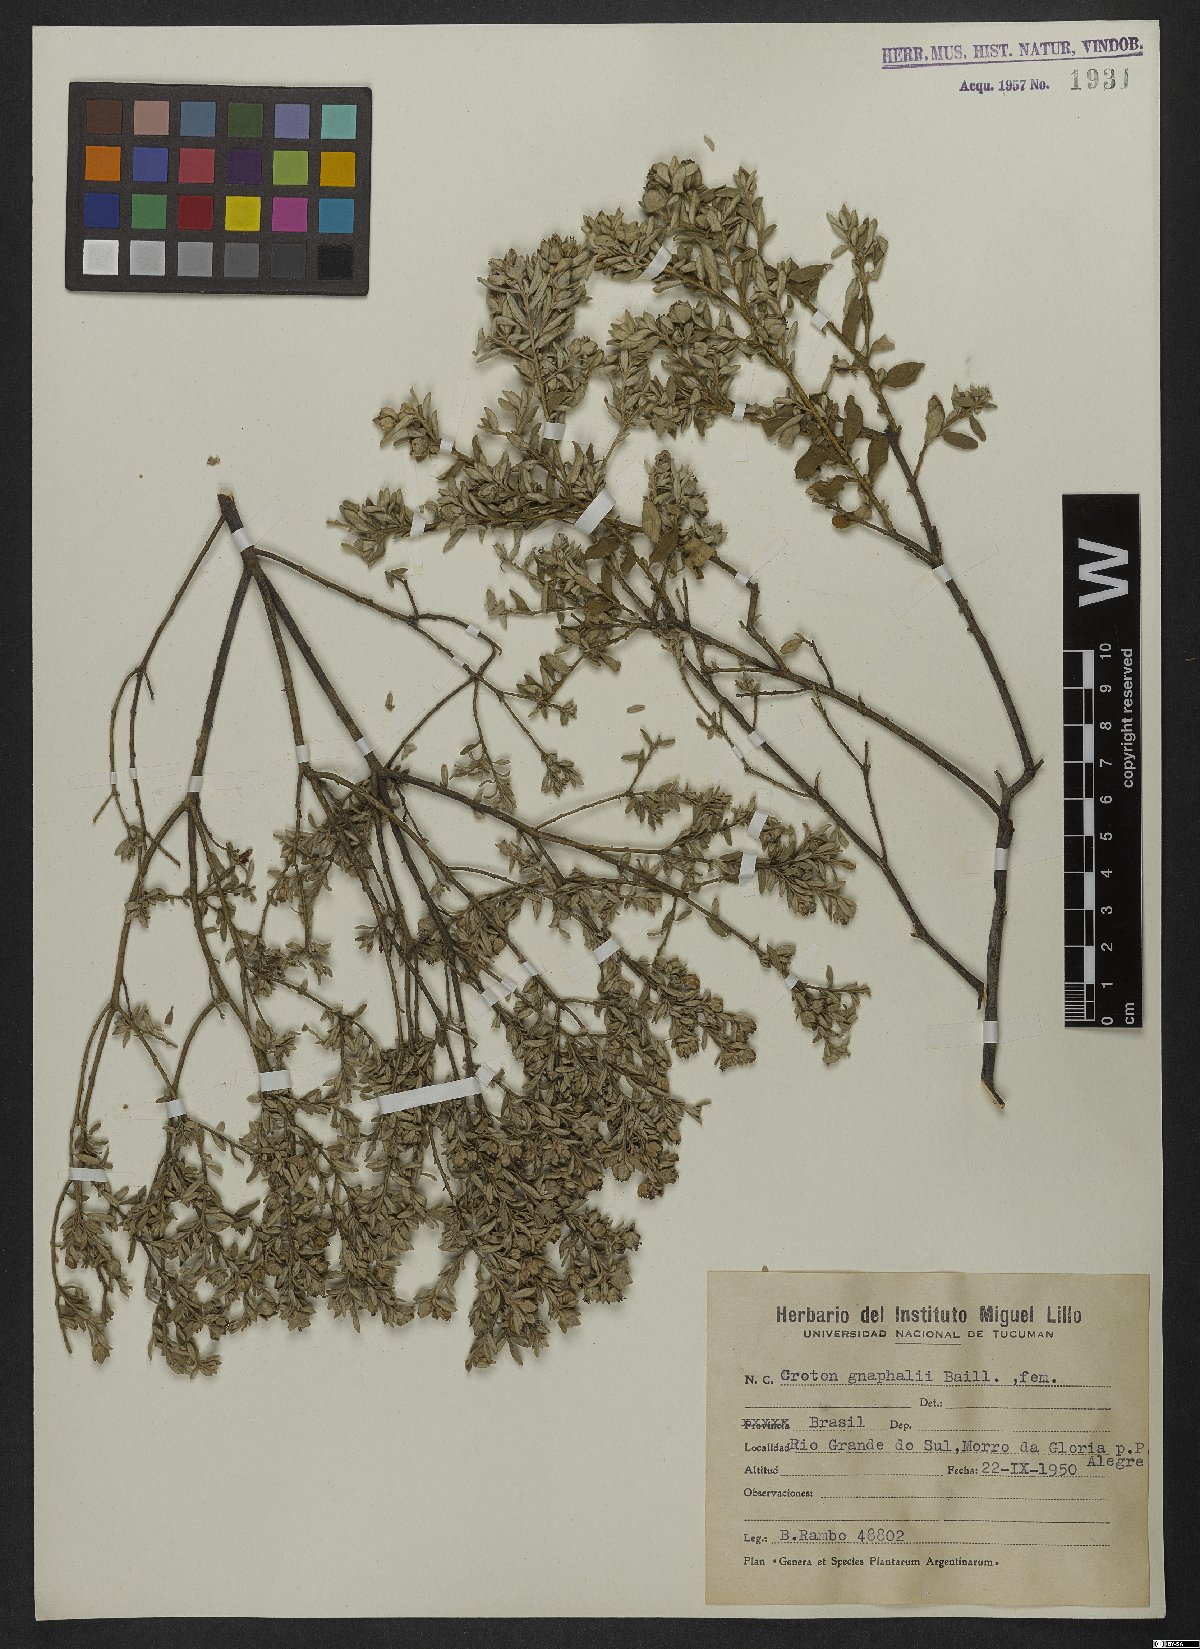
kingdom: Plantae
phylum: Tracheophyta
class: Magnoliopsida
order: Malpighiales
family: Euphorbiaceae
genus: Croton
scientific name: Croton gnaphalii
